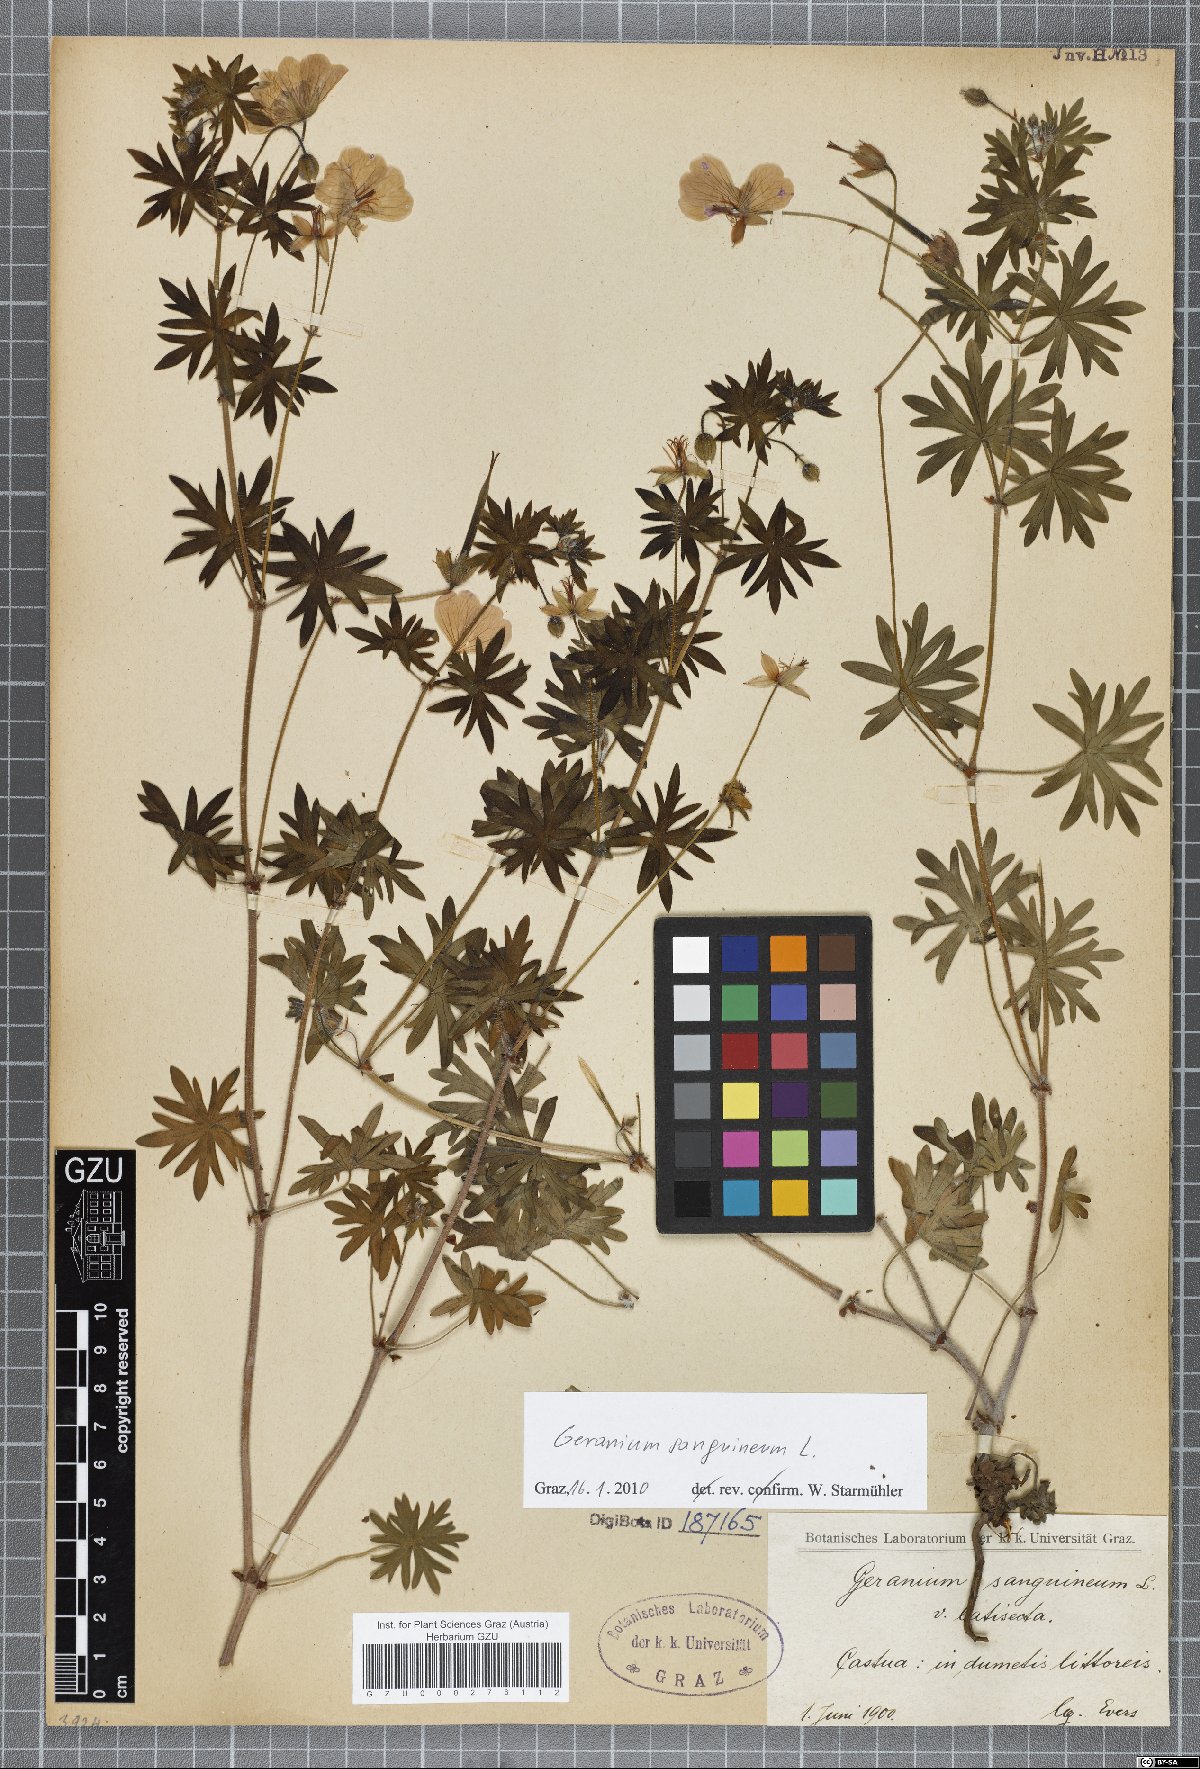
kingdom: Plantae
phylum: Tracheophyta
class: Magnoliopsida
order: Geraniales
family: Geraniaceae
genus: Geranium
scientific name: Geranium sanguineum
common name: Bloody crane's-bill
